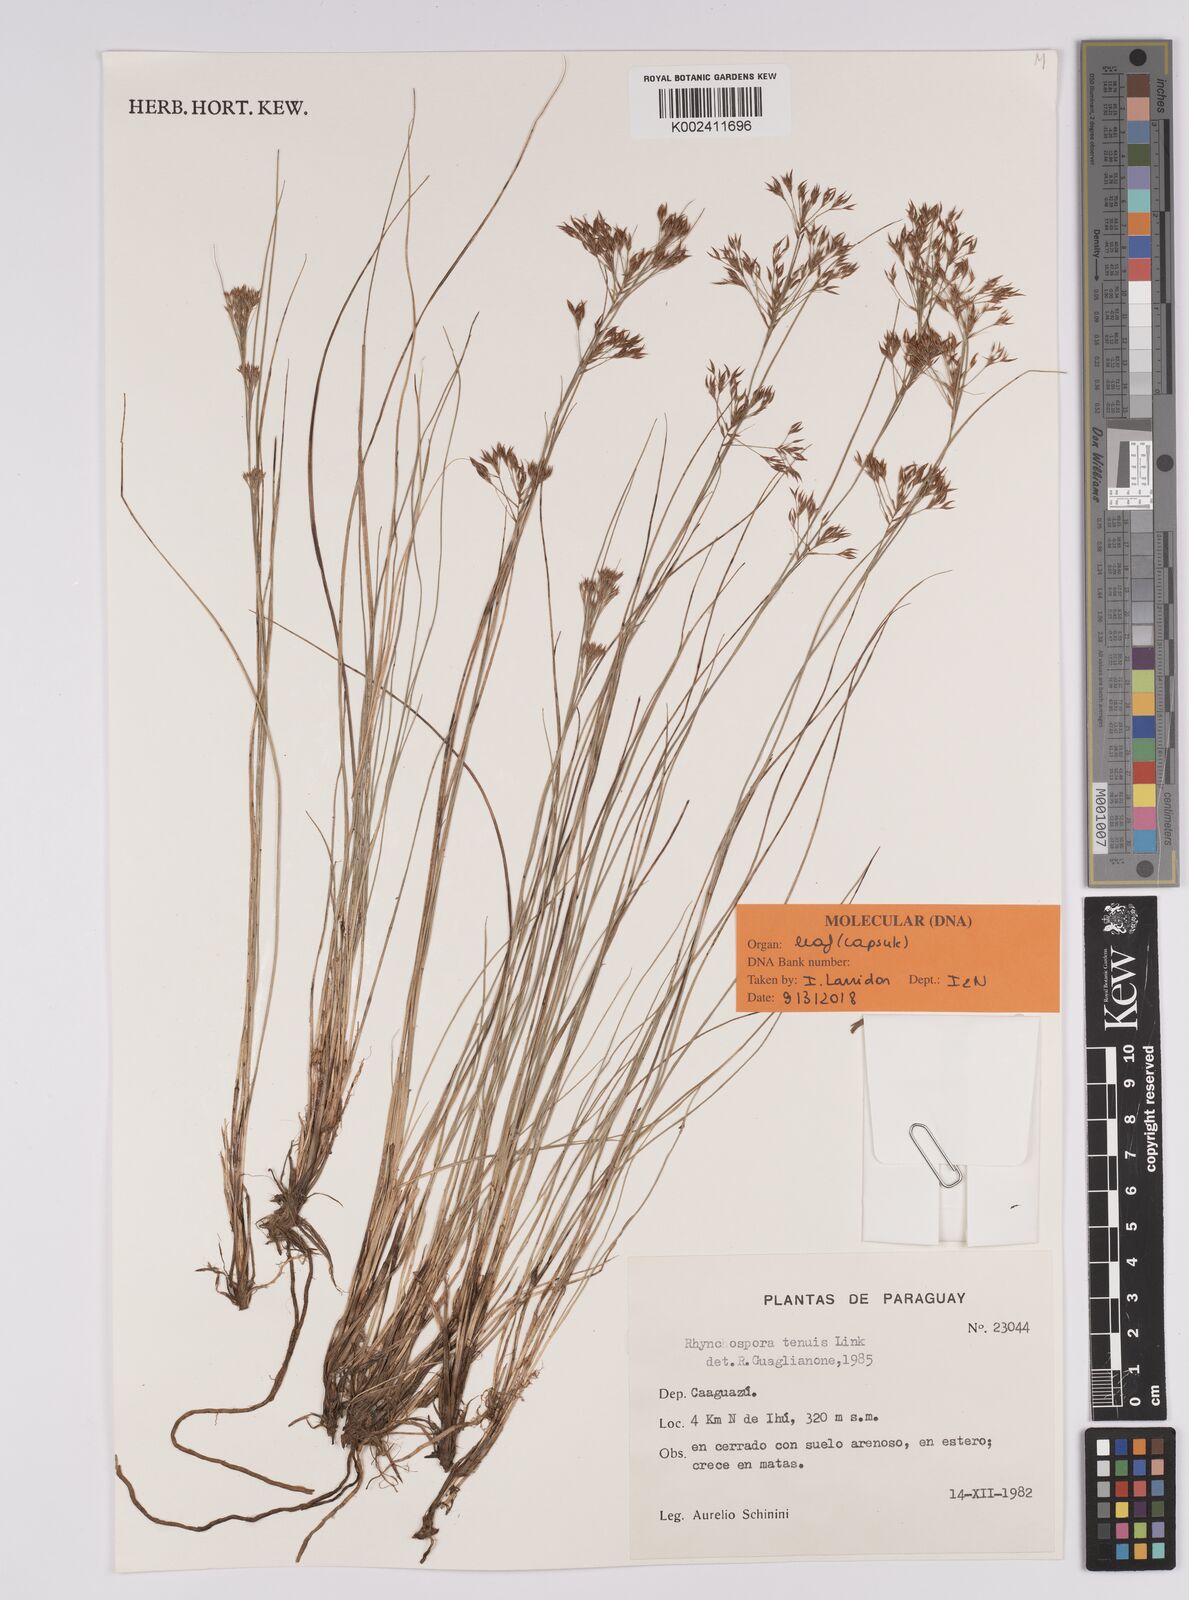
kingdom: Plantae
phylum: Tracheophyta
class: Liliopsida
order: Poales
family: Cyperaceae
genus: Rhynchospora
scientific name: Rhynchospora tenuis
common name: Quill beaksedge
